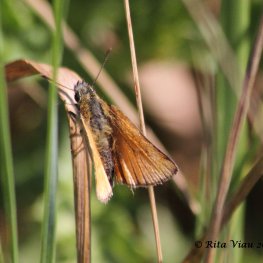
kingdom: Animalia
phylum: Arthropoda
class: Insecta
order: Lepidoptera
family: Hesperiidae
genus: Thymelicus
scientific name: Thymelicus lineola
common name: European Skipper
